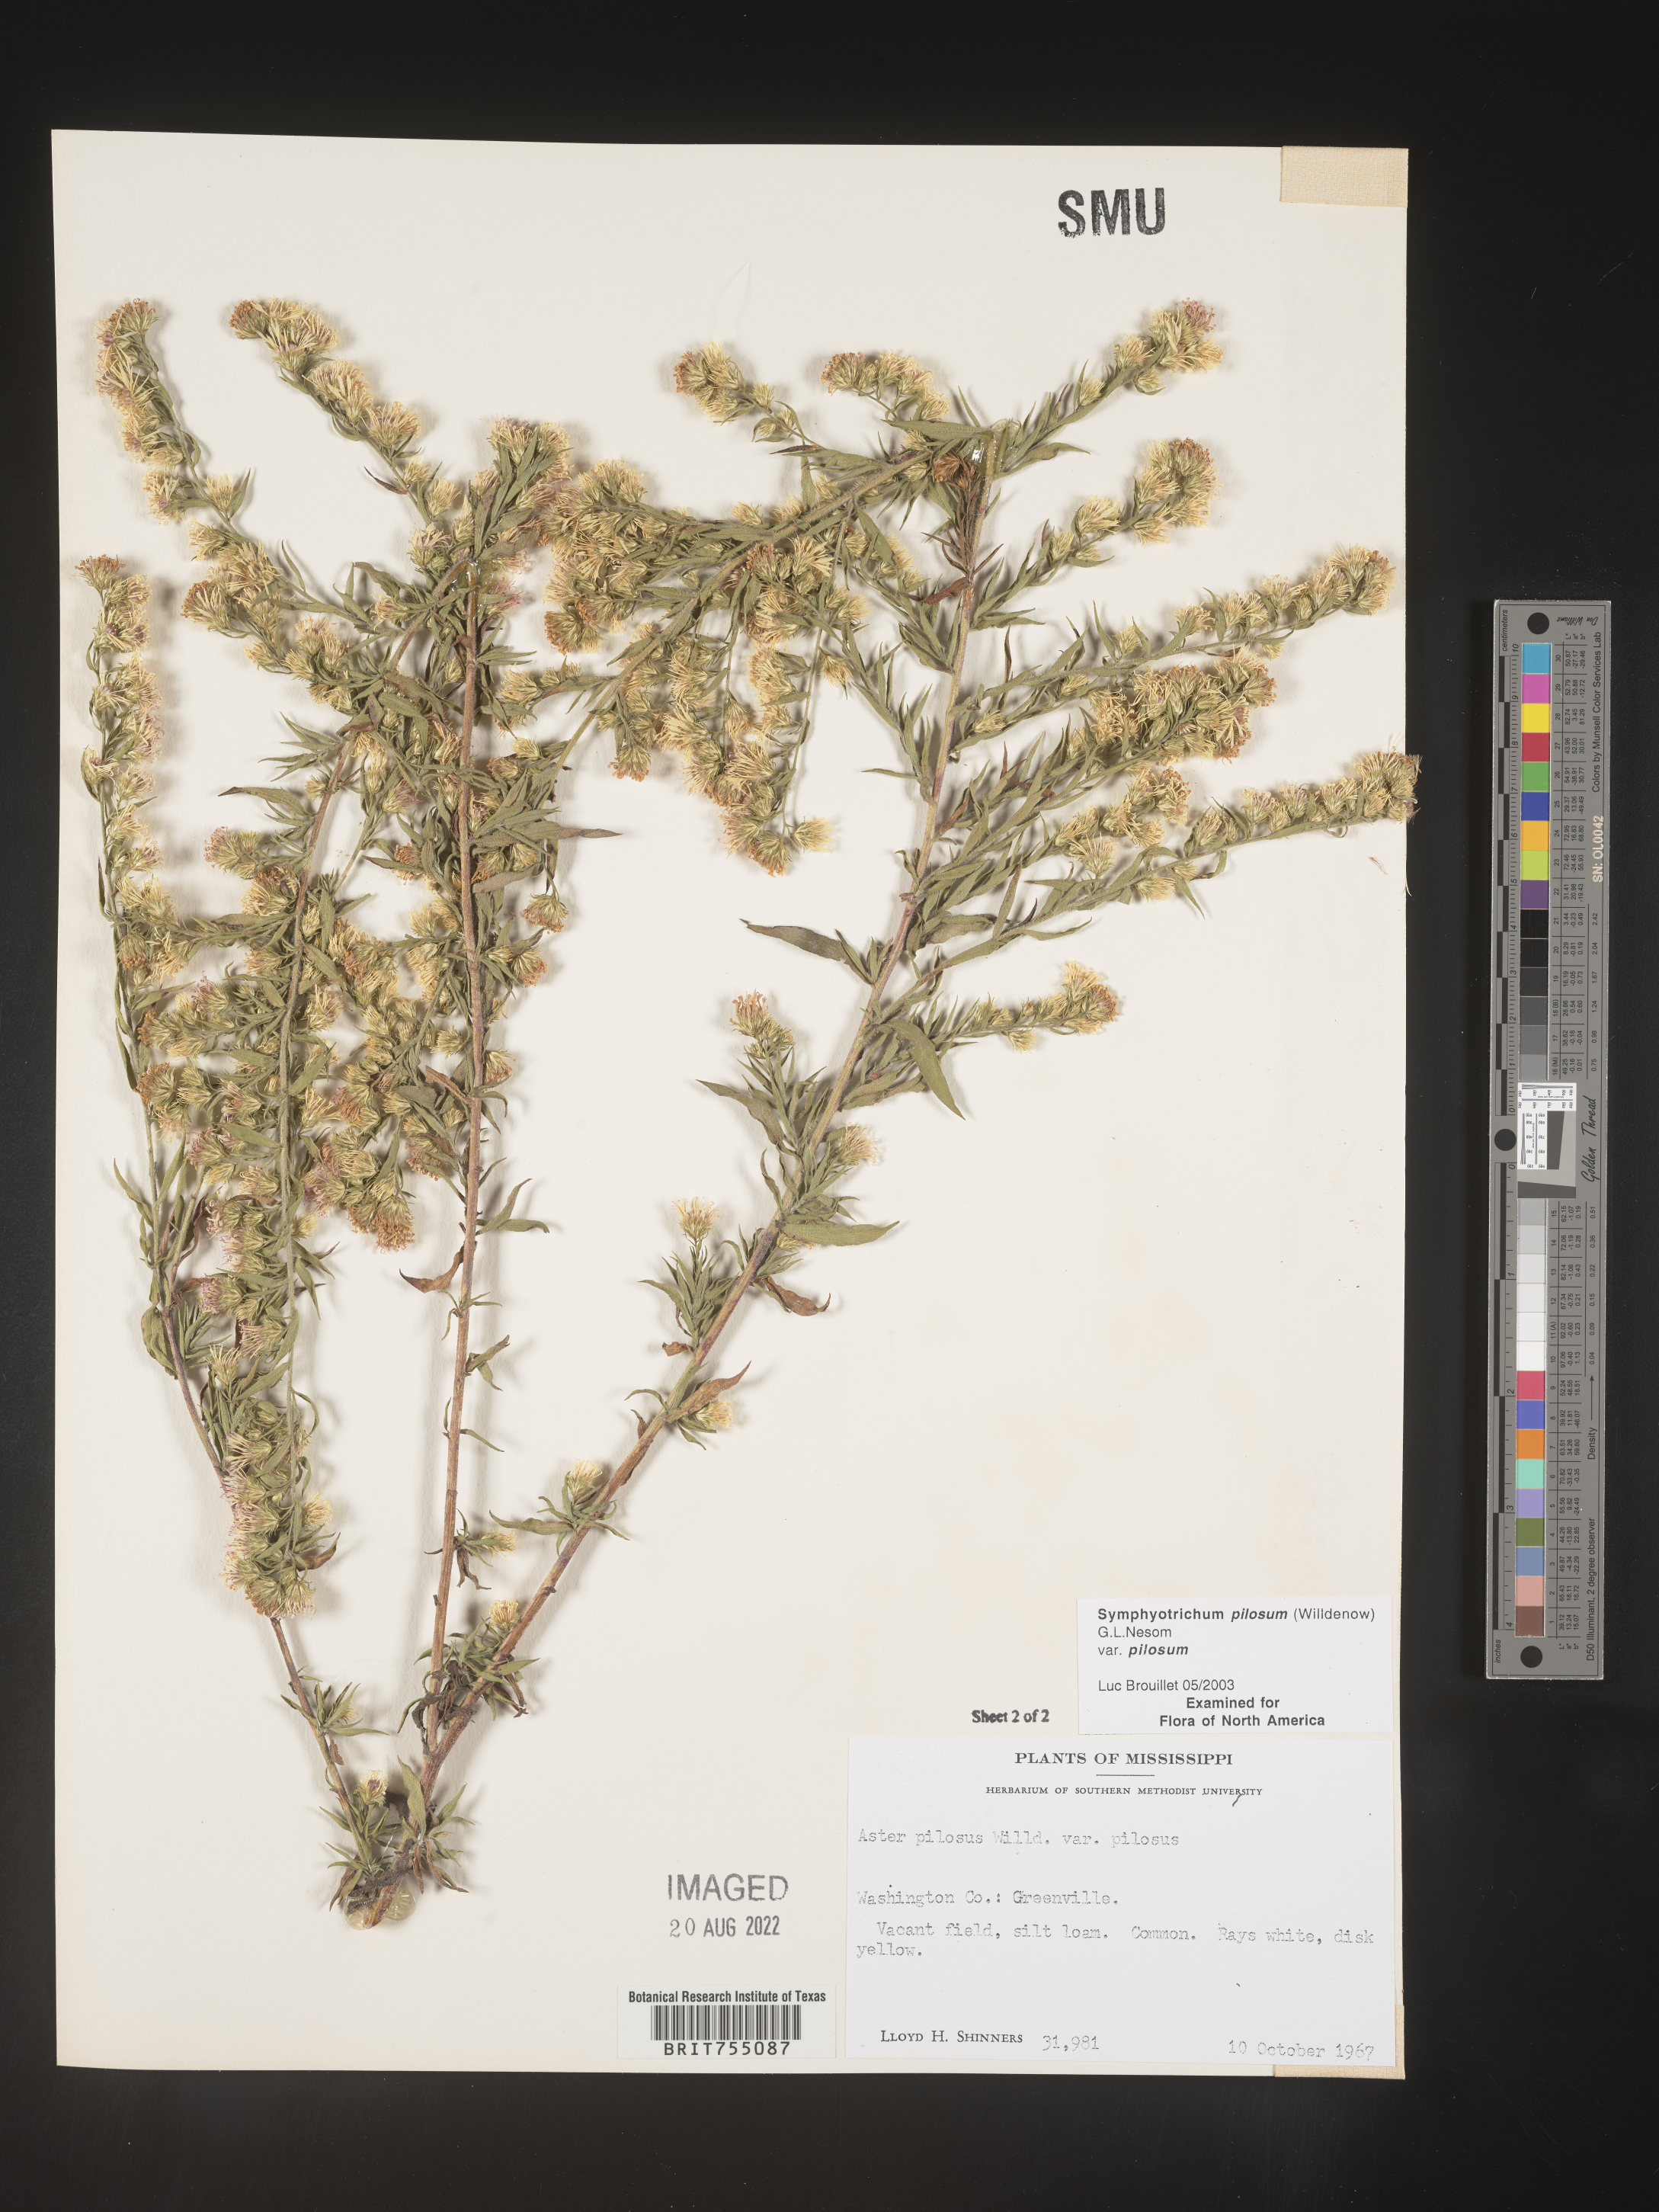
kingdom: Plantae
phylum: Tracheophyta
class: Magnoliopsida
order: Asterales
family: Asteraceae
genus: Symphyotrichum
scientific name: Symphyotrichum pilosum
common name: Awl aster
